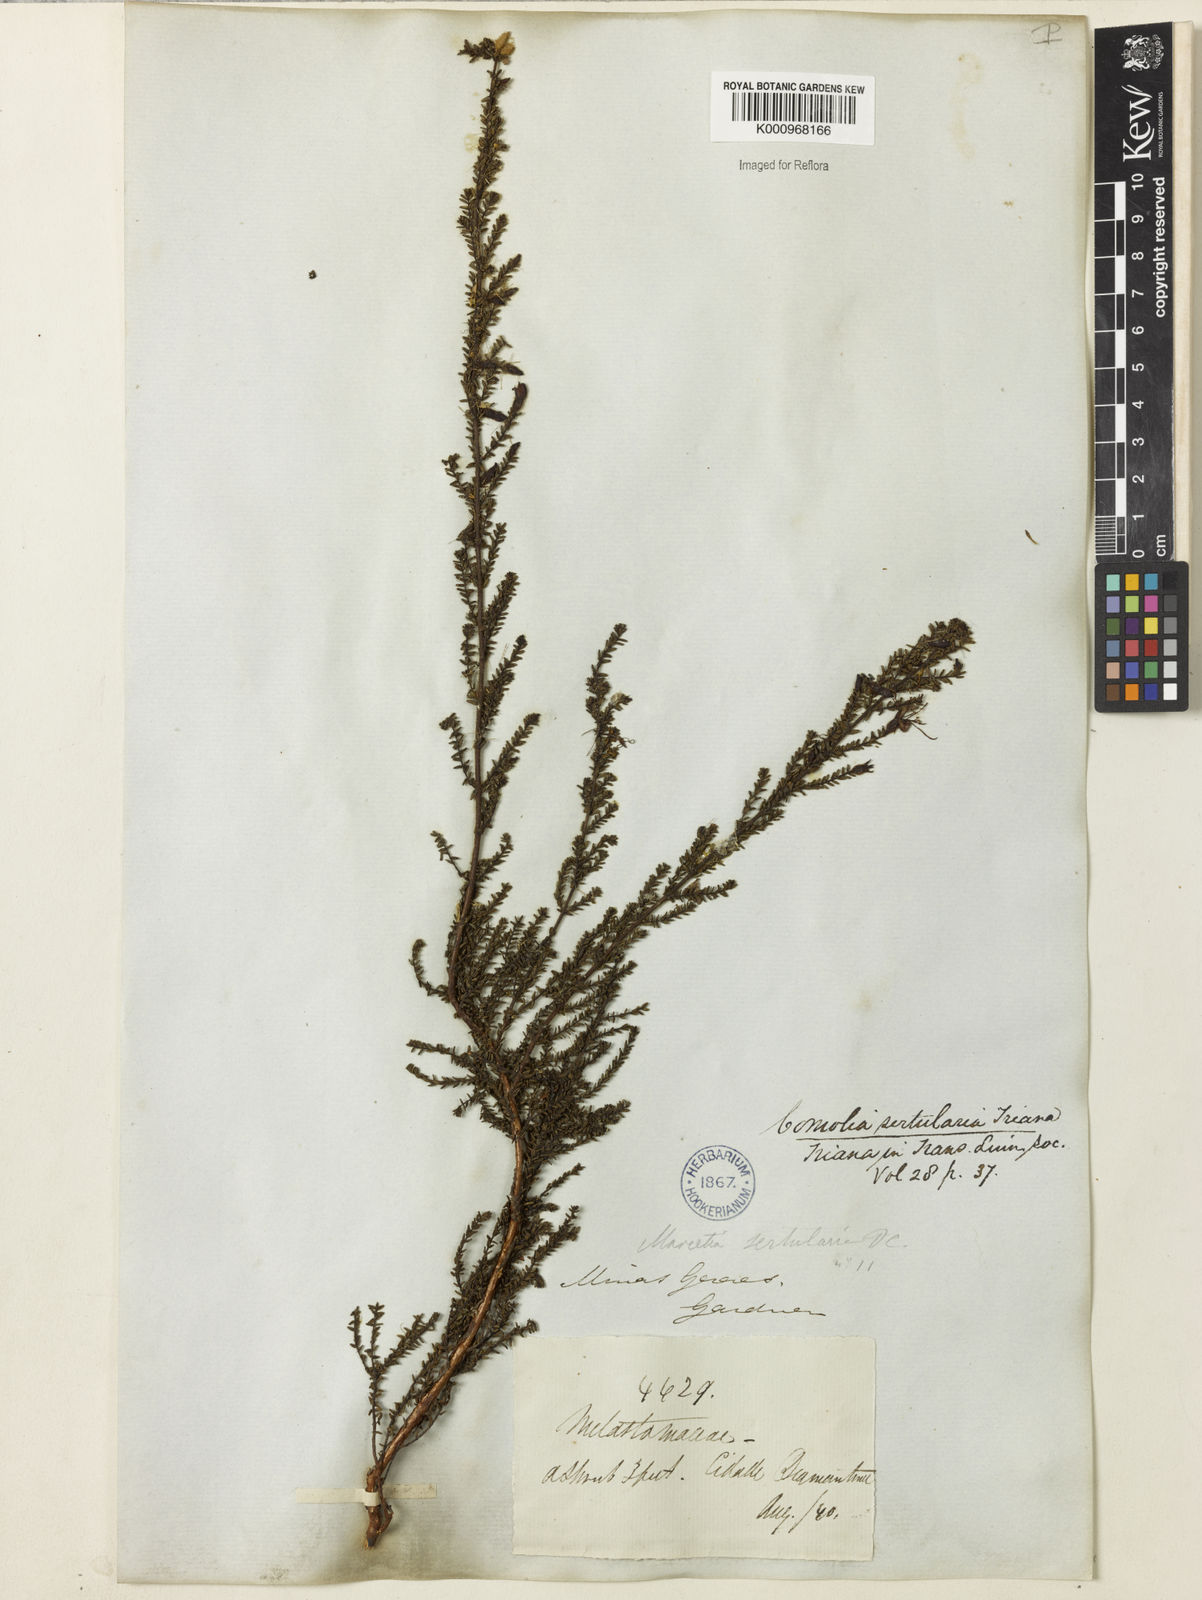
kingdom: Plantae
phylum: Tracheophyta
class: Magnoliopsida
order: Myrtales
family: Melastomataceae
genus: Fritzschia
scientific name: Fritzschia sertularia
